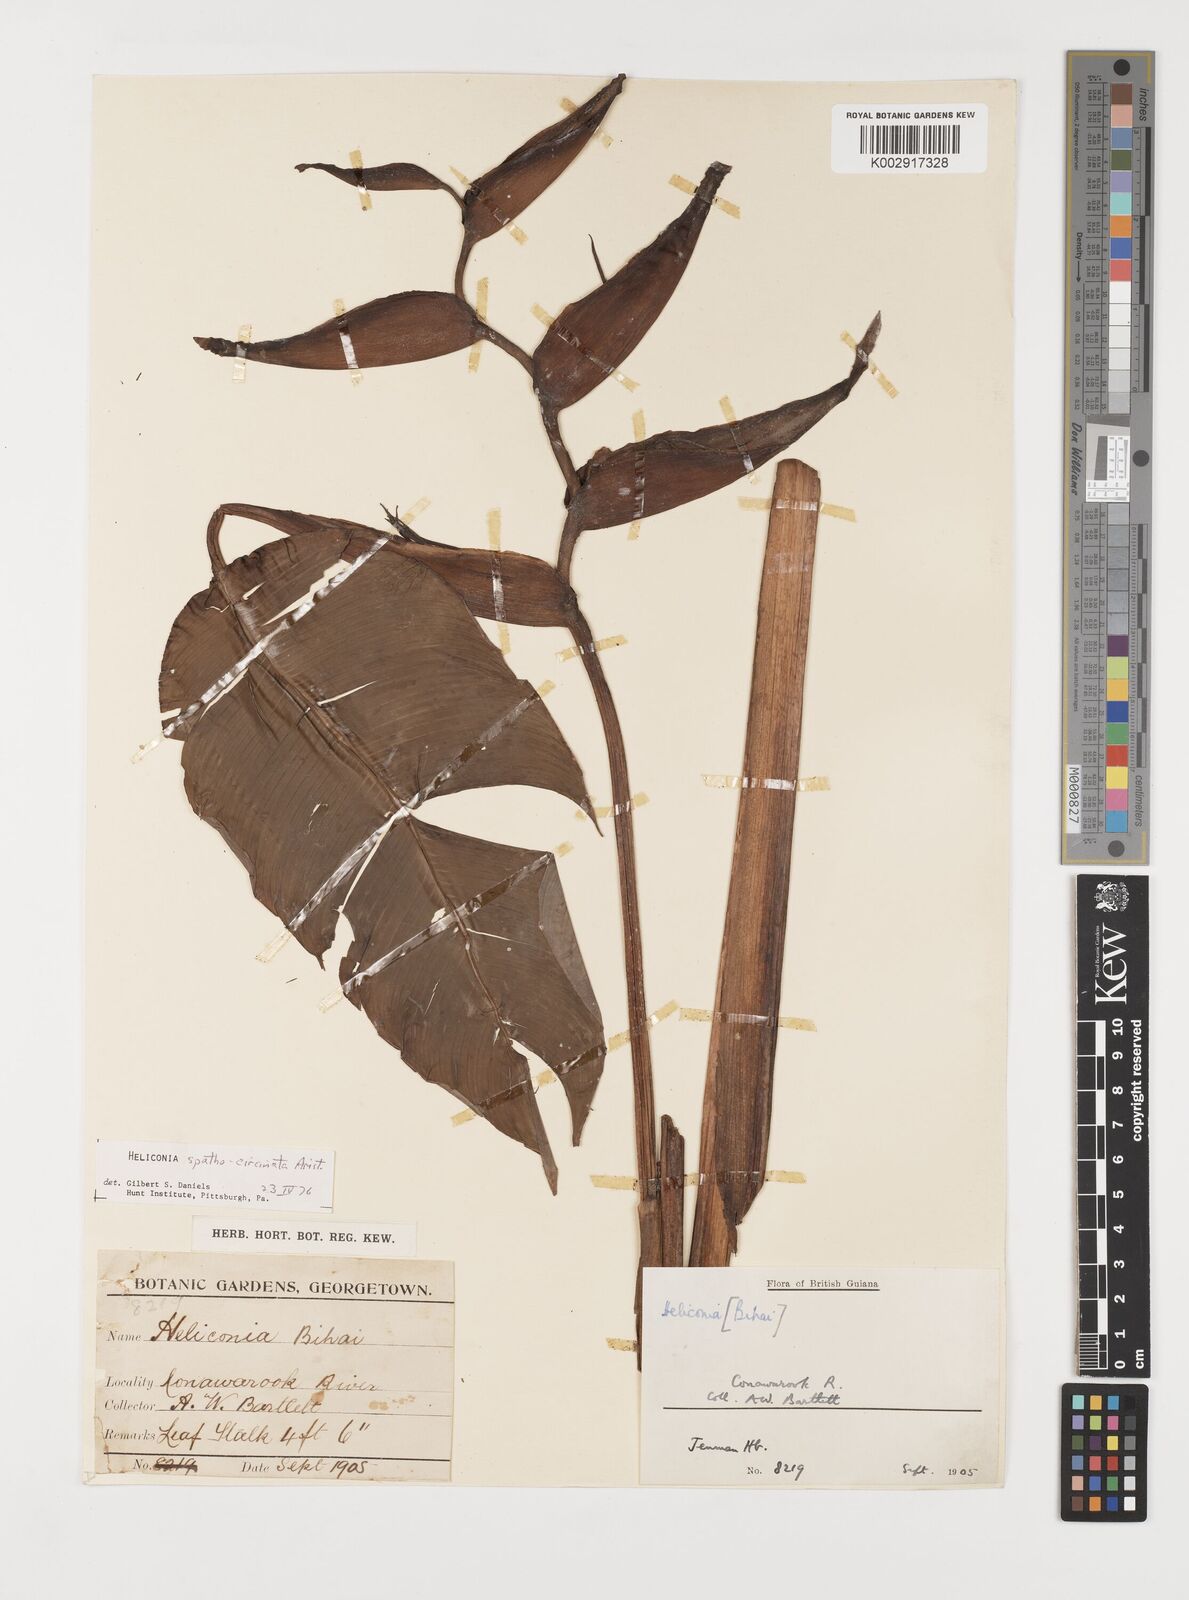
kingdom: Plantae
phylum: Tracheophyta
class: Liliopsida
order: Zingiberales
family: Heliconiaceae
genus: Heliconia
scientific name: Heliconia spathocircinata
